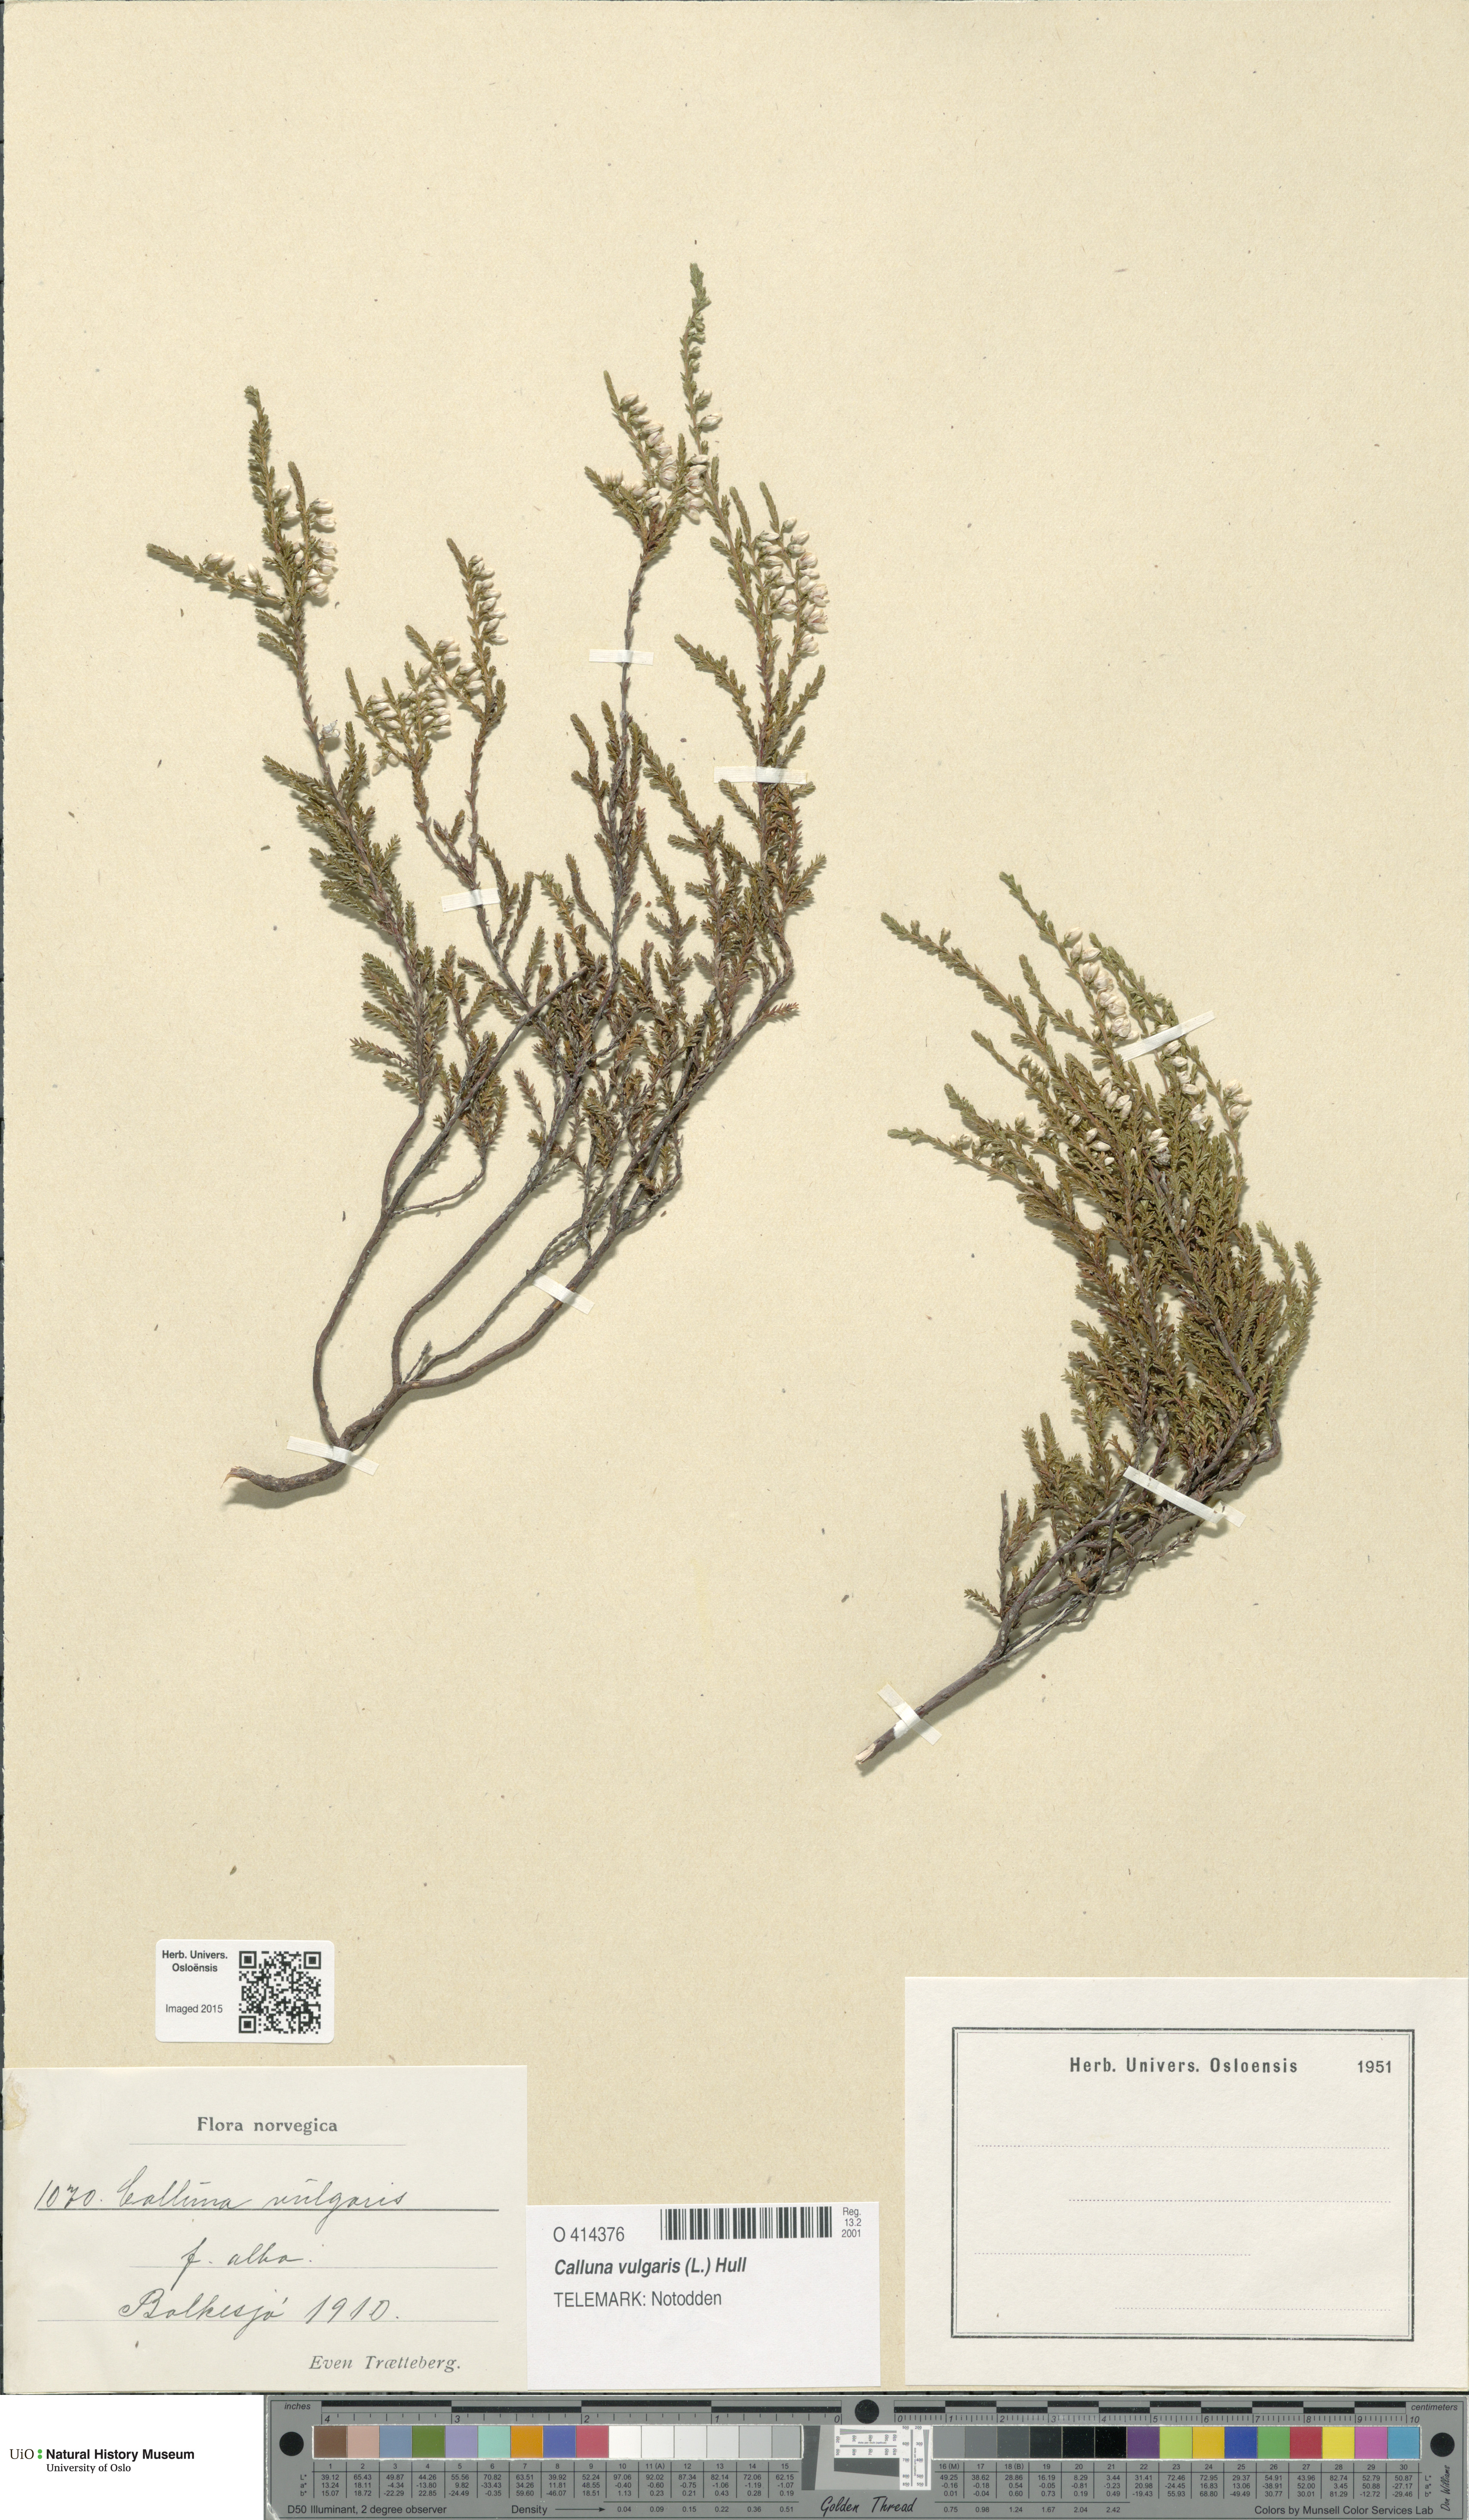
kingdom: Plantae
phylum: Tracheophyta
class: Magnoliopsida
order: Ericales
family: Ericaceae
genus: Calluna
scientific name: Calluna vulgaris
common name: Heather
